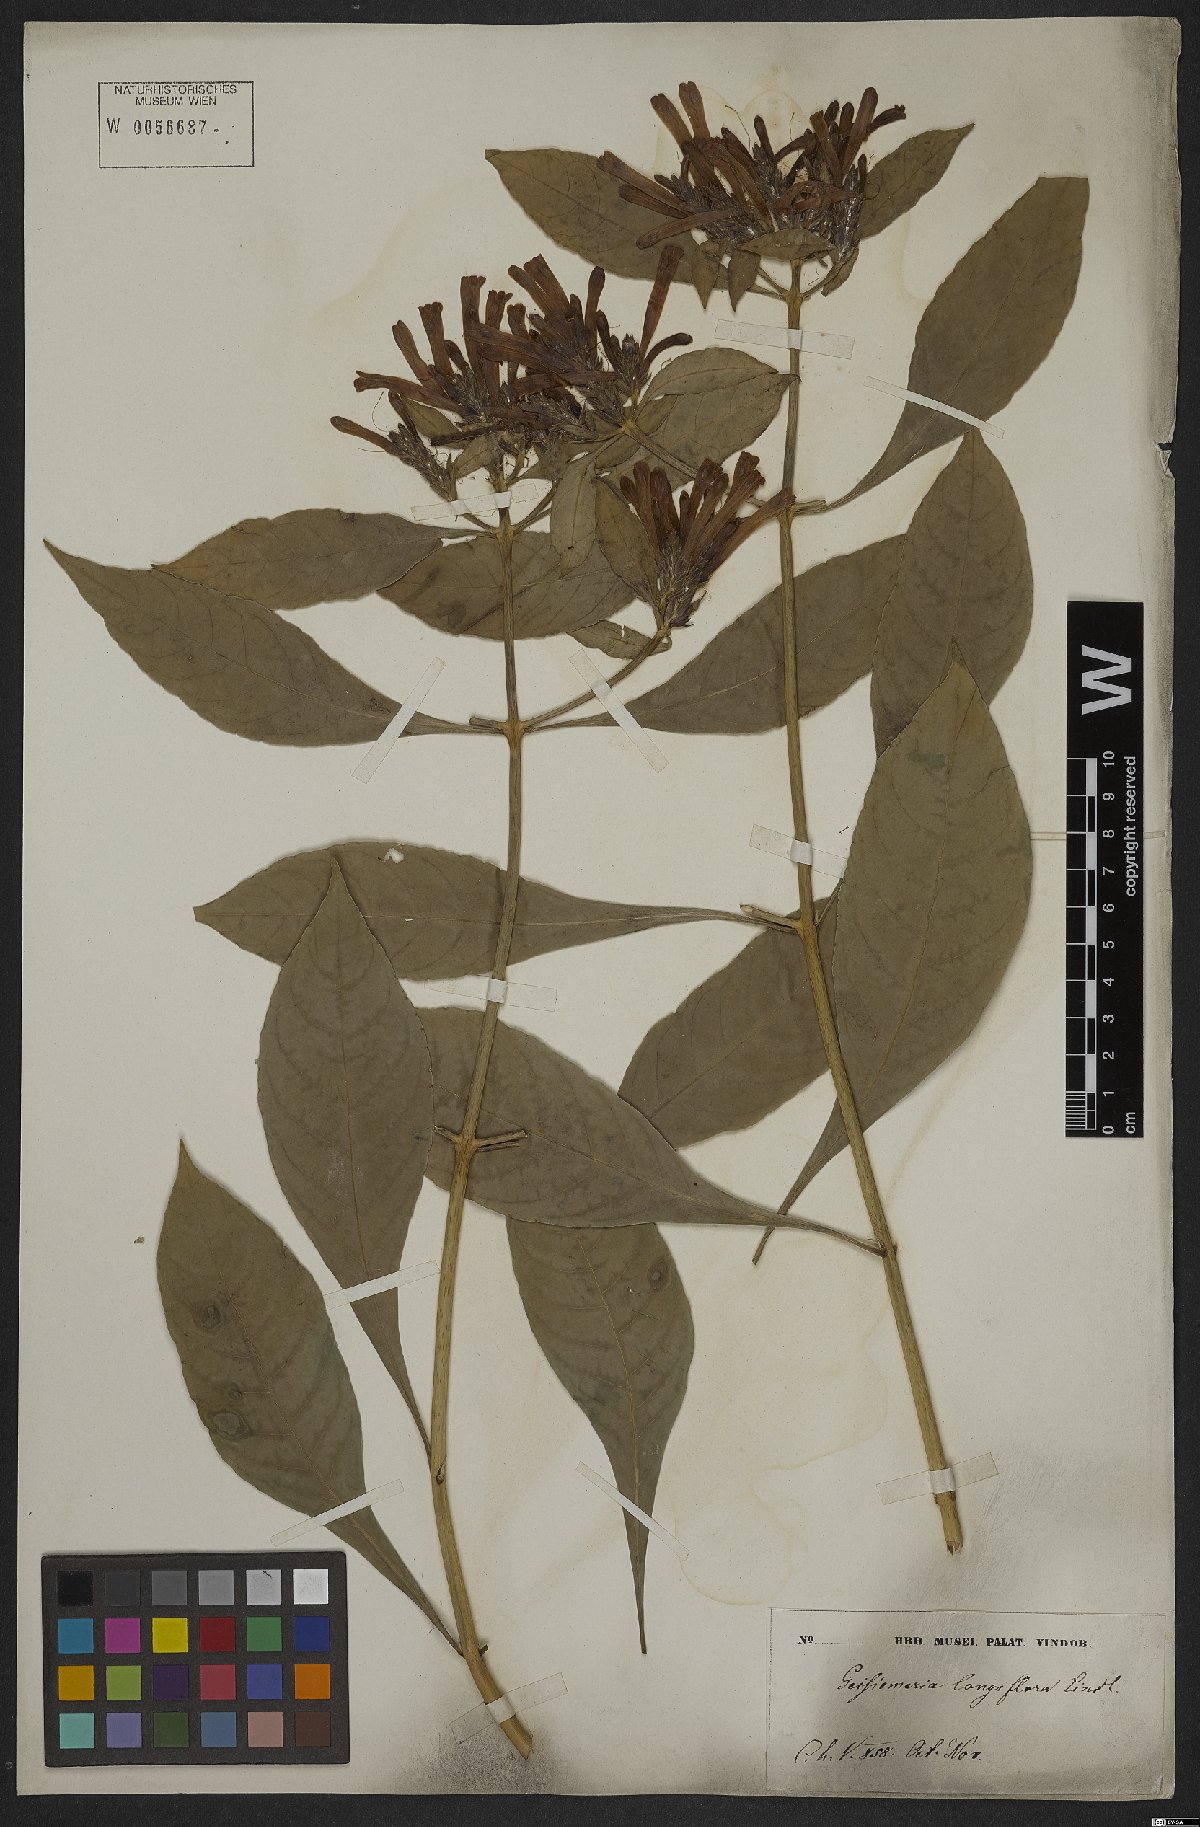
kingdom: Plantae
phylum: Tracheophyta
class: Magnoliopsida
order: Lamiales
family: Acanthaceae
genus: Aphelandra
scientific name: Aphelandra longiflora
